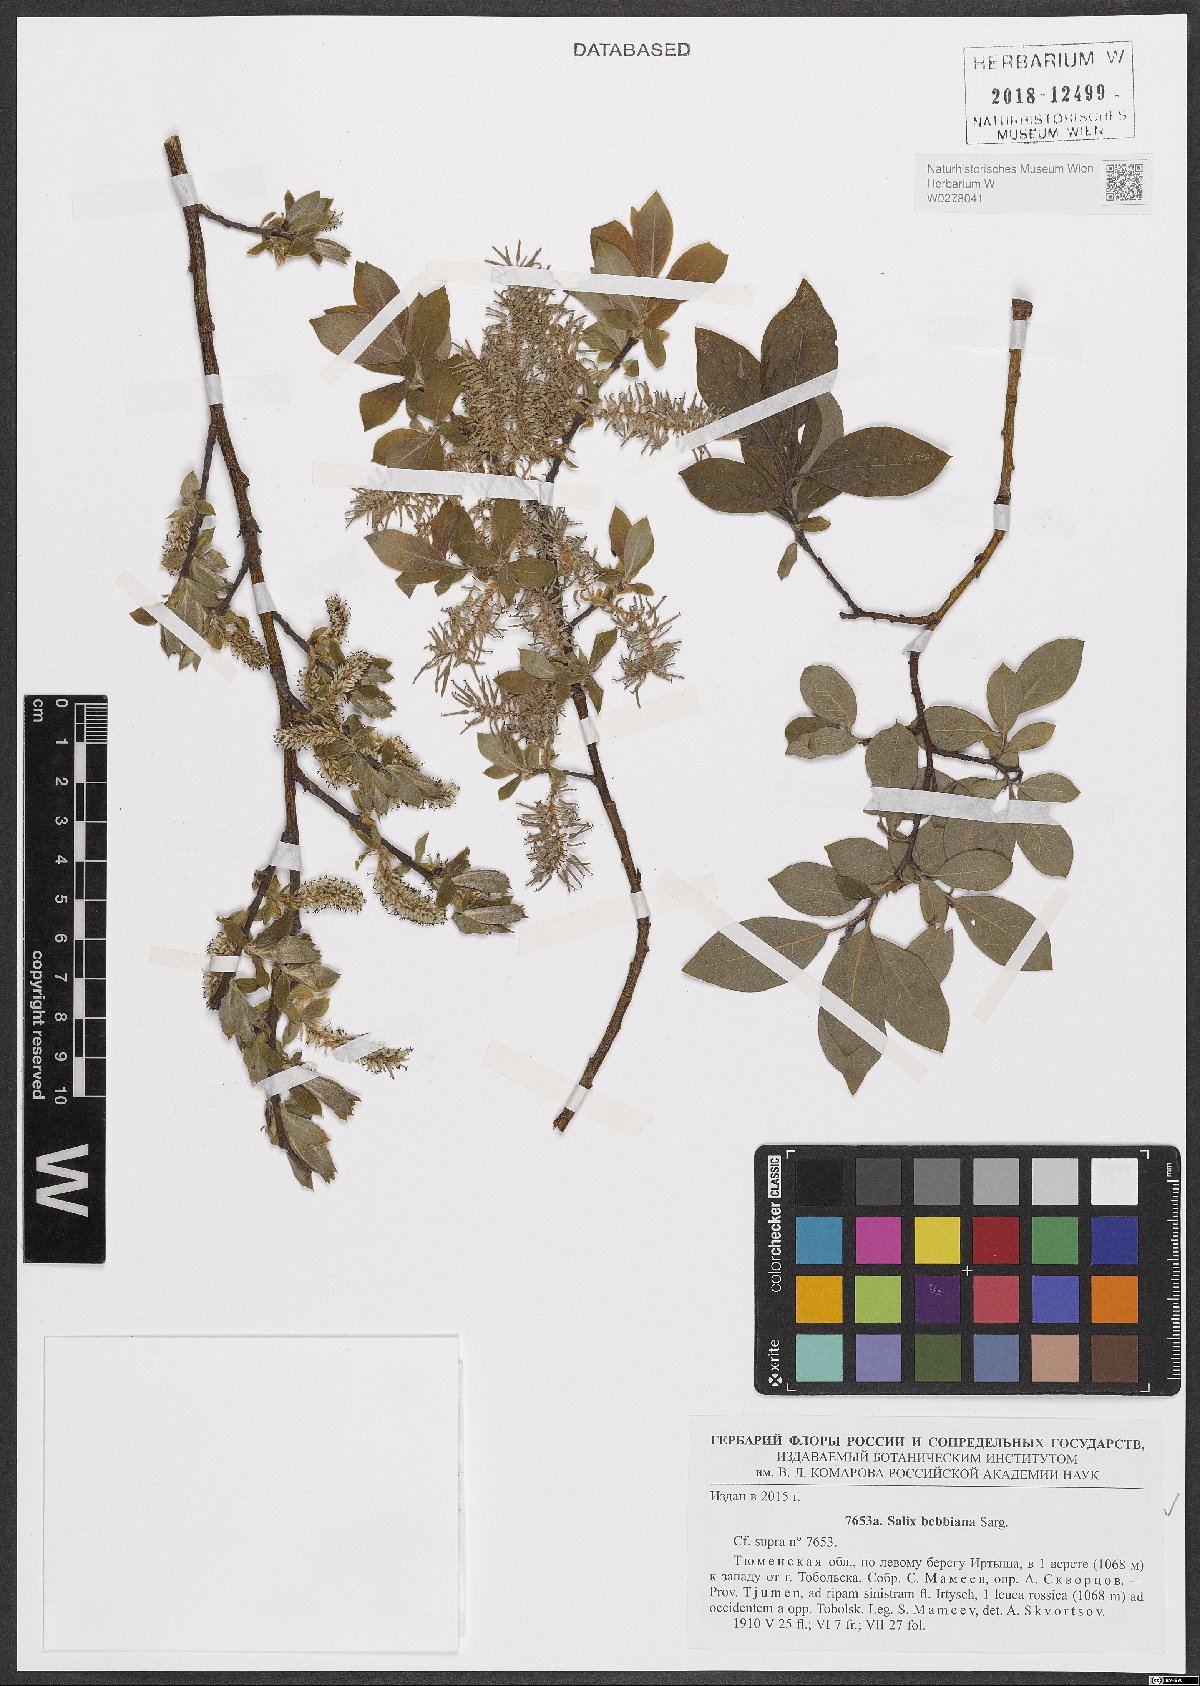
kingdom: Plantae
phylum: Tracheophyta
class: Magnoliopsida
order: Malpighiales
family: Salicaceae
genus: Salix
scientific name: Salix bebbiana
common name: Bebb's willow
